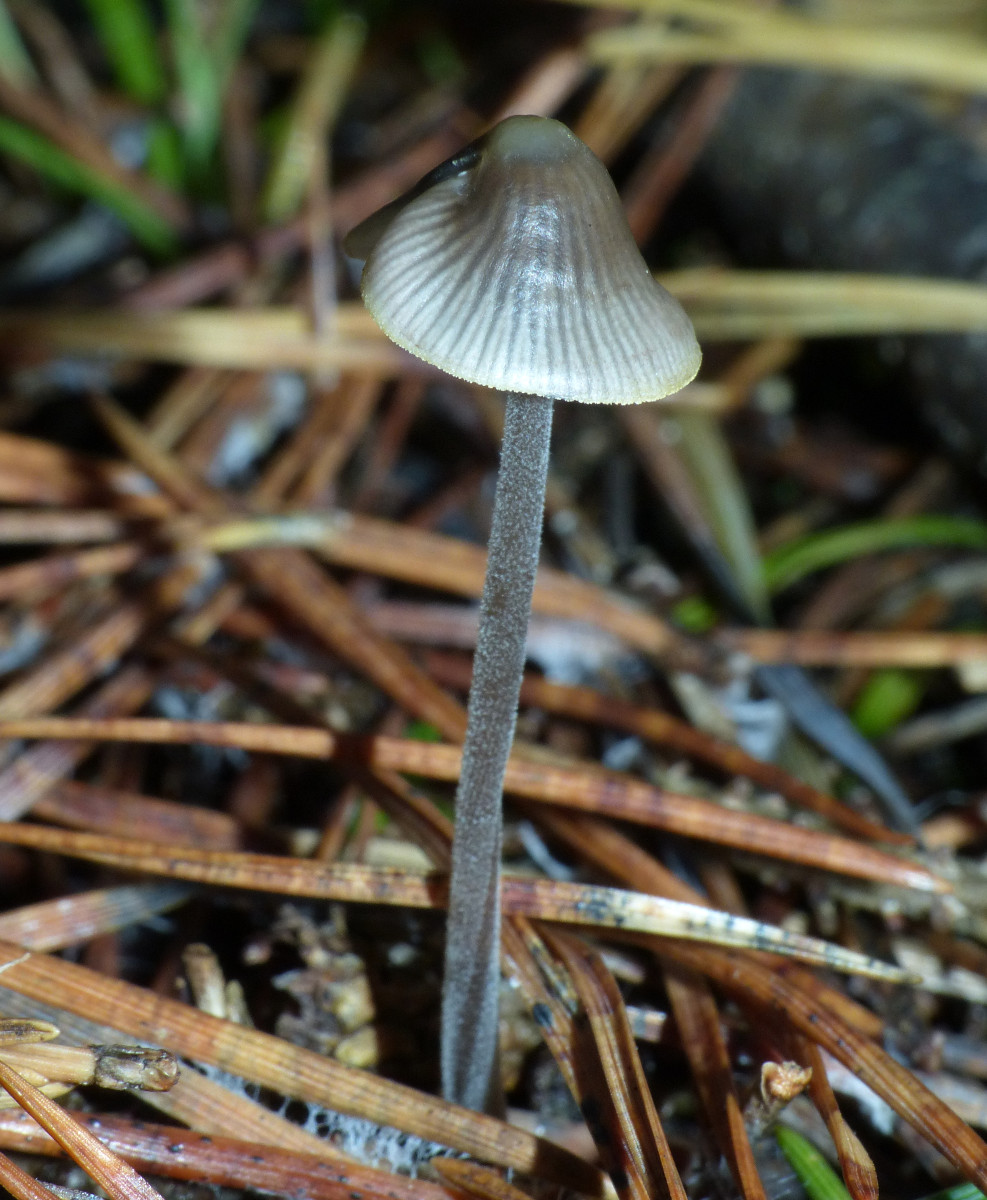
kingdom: Fungi
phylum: Basidiomycota
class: Agaricomycetes
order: Agaricales
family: Mycenaceae
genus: Mycena
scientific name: Mycena amicta
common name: iris-huesvamp
